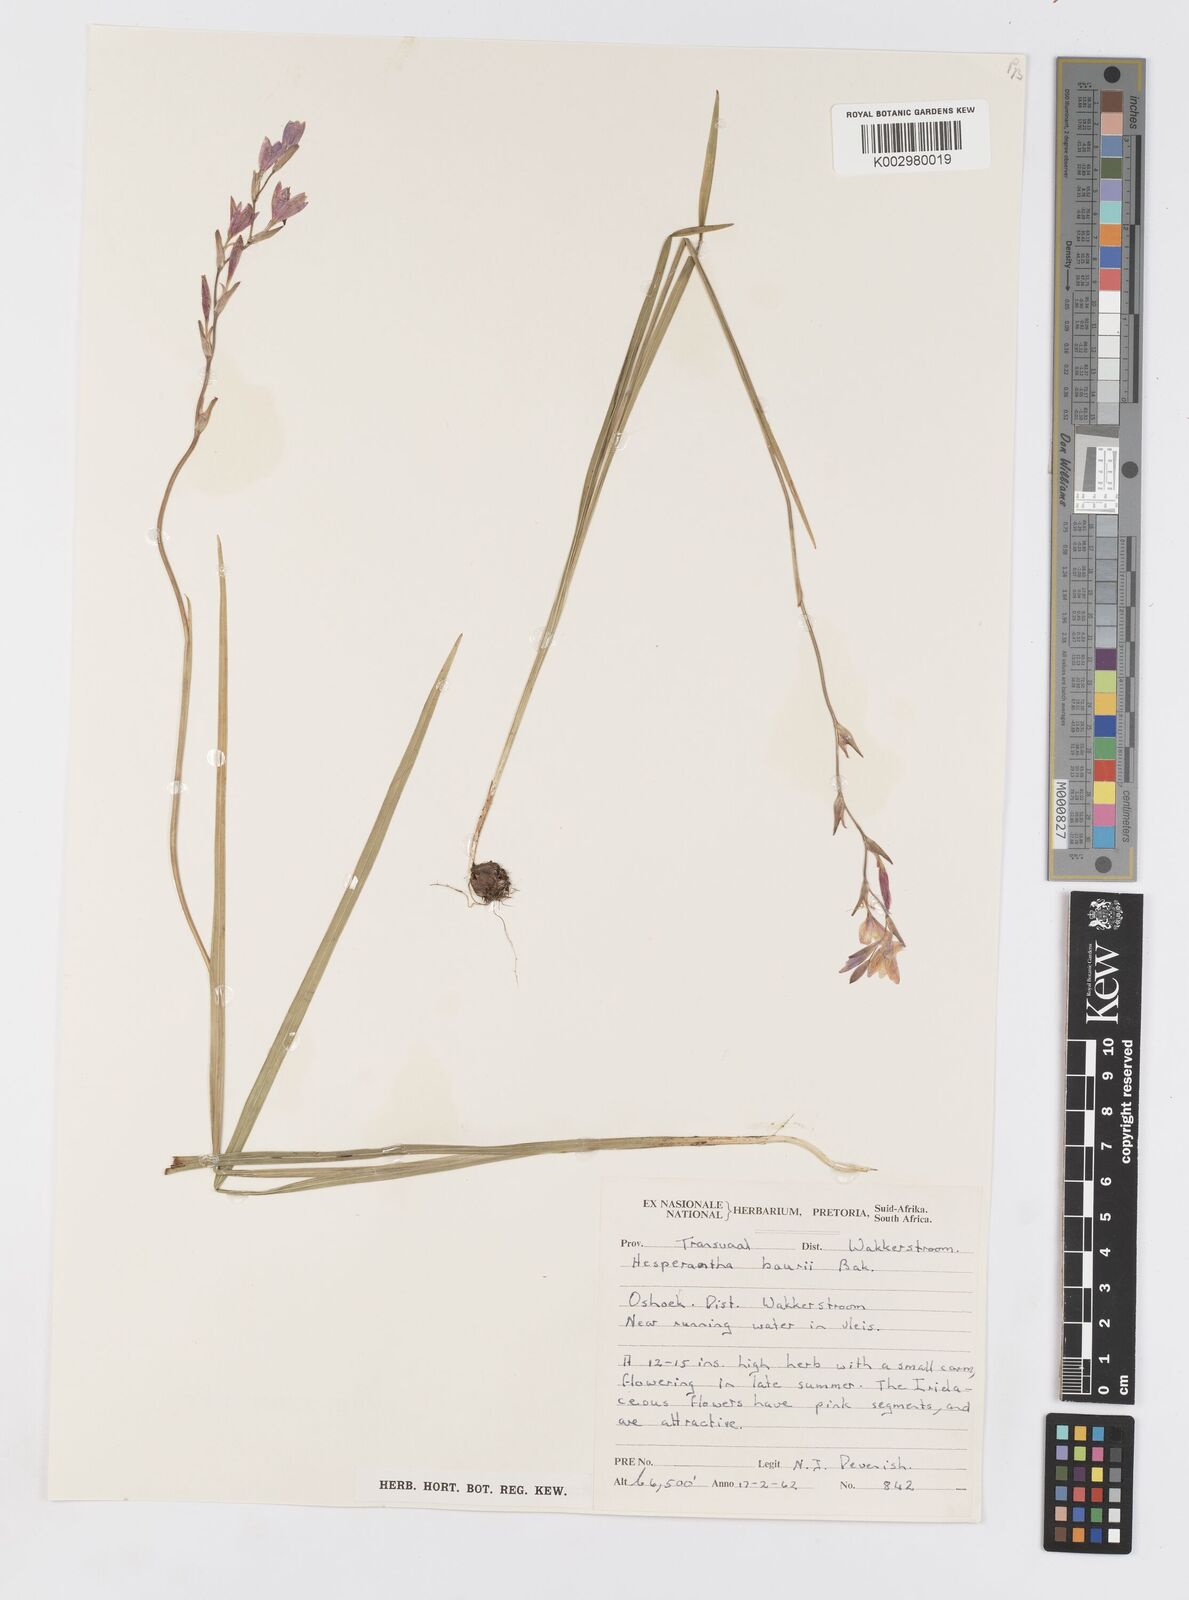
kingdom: Plantae
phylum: Tracheophyta
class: Liliopsida
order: Asparagales
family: Iridaceae
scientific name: Iridaceae
